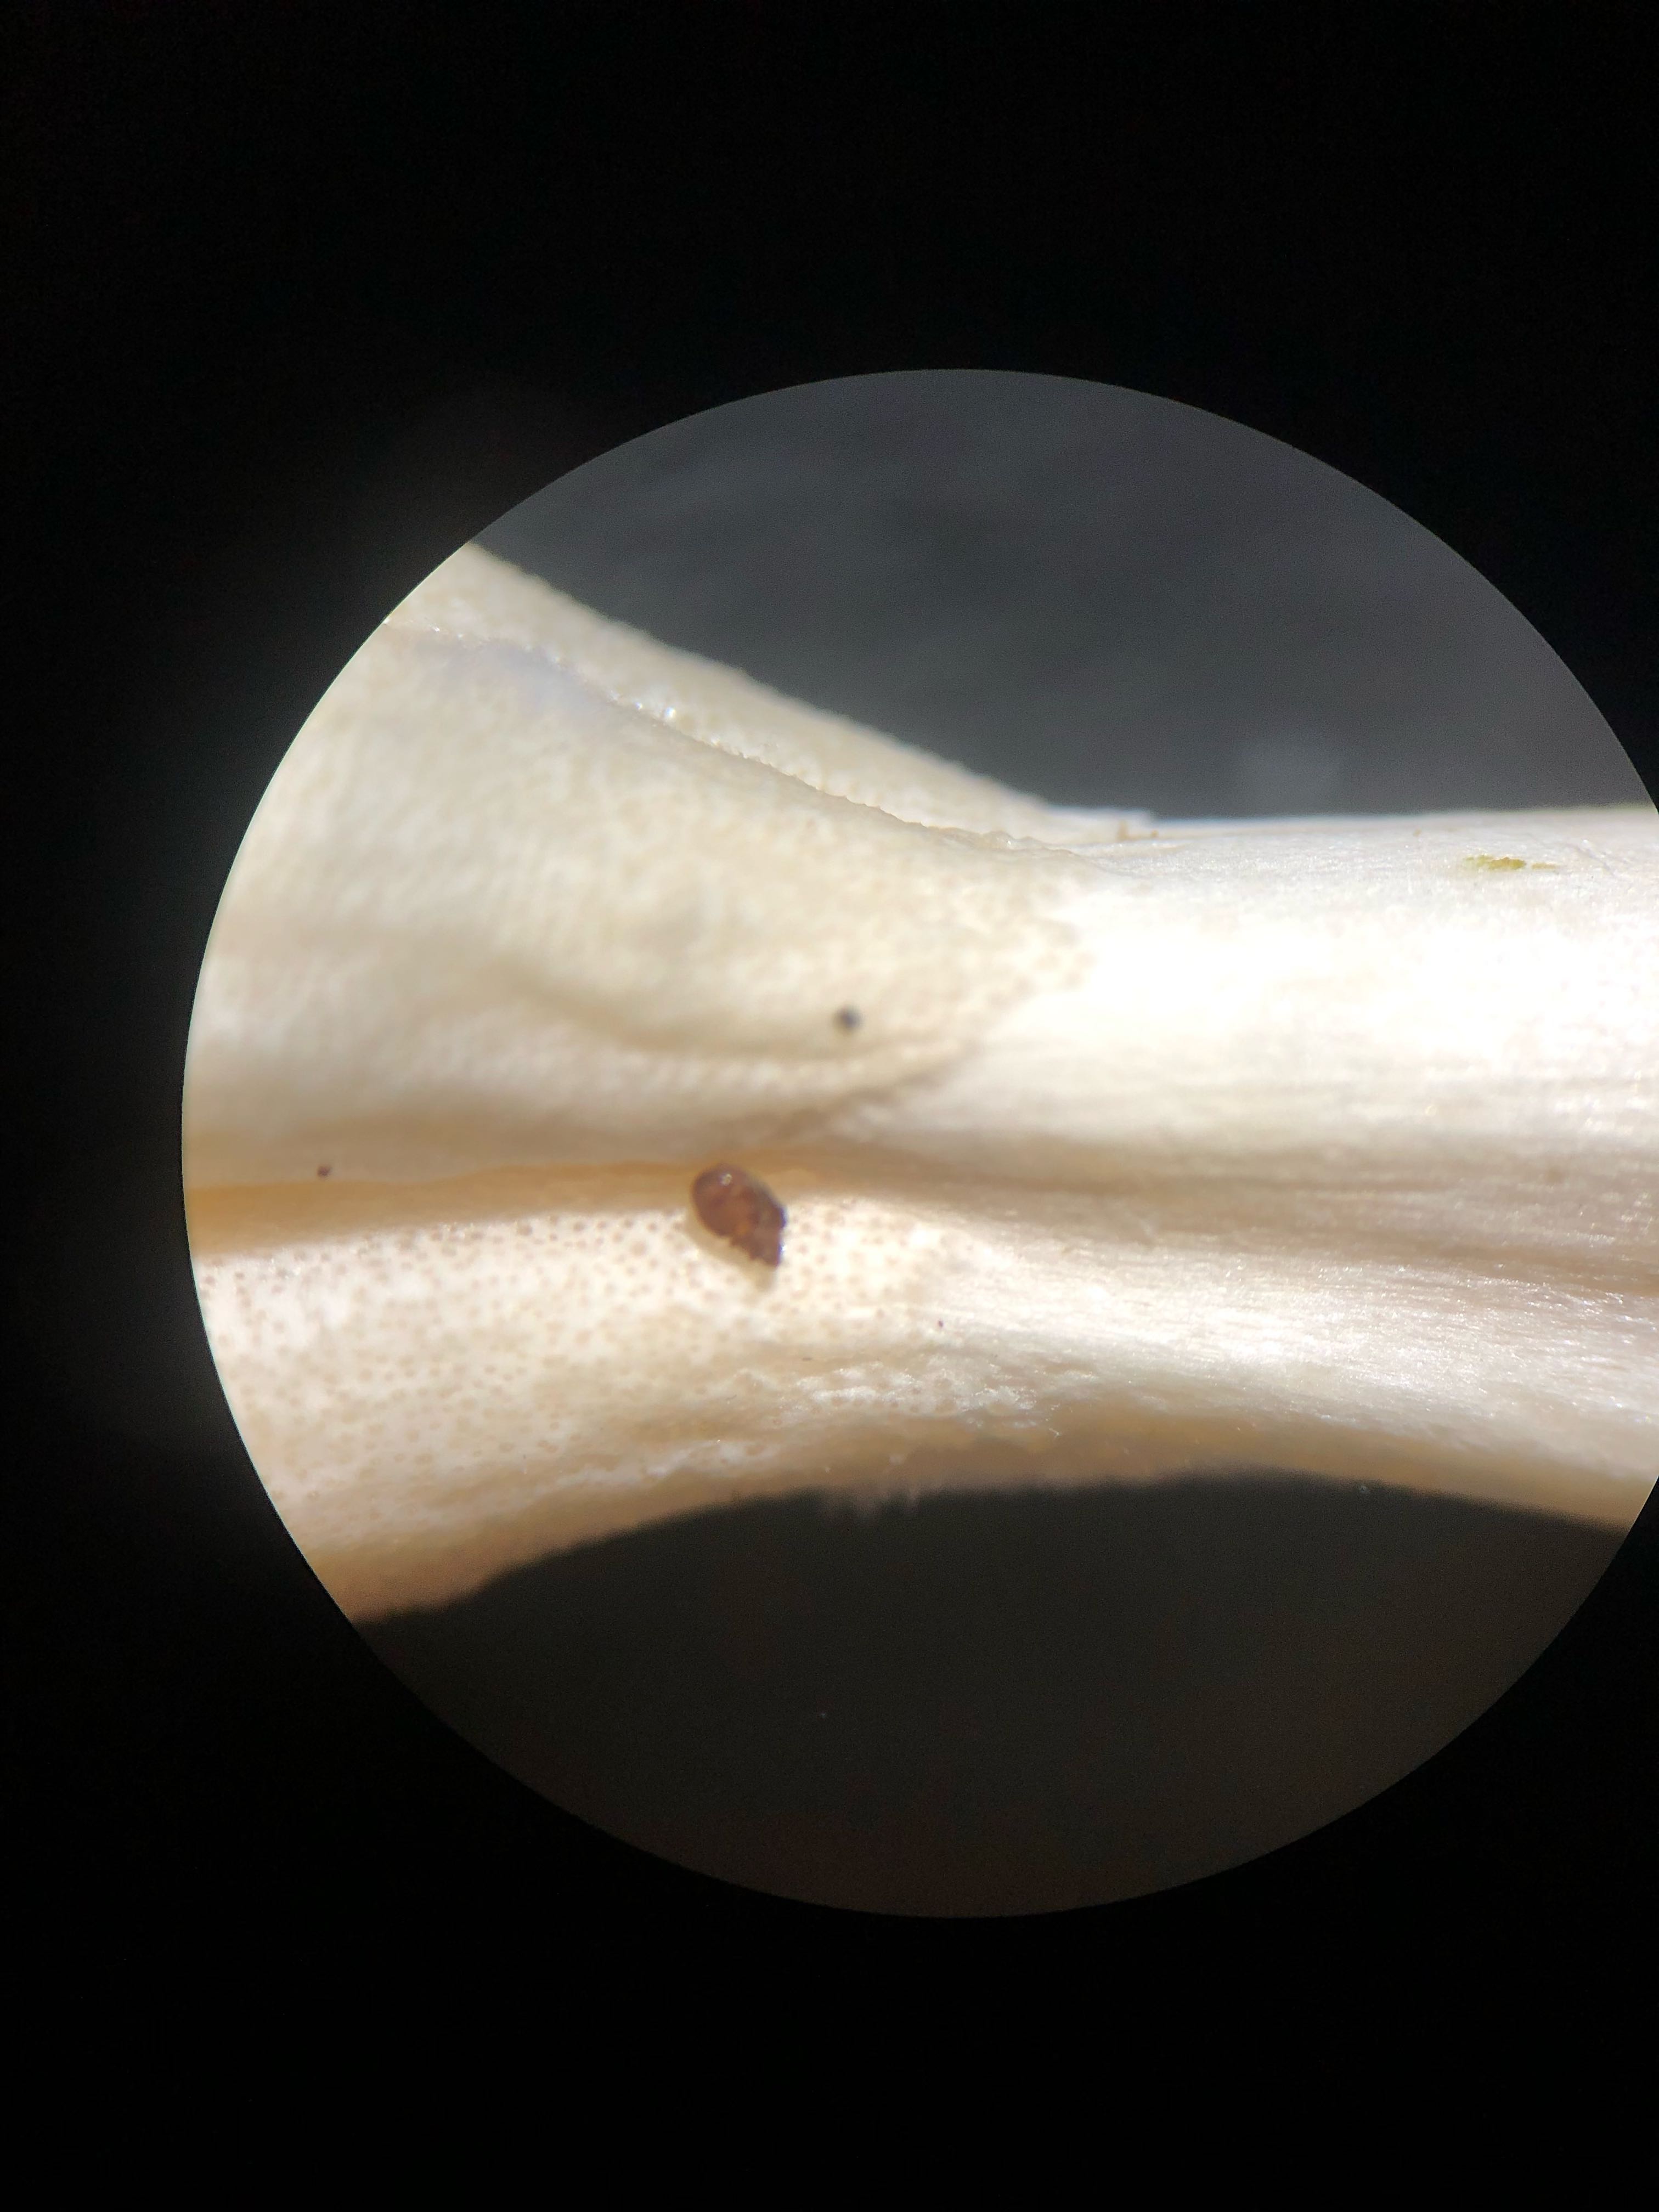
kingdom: Fungi
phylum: Ascomycota
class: Sordariomycetes
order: Hypocreales
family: Hypocreaceae
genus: Trichoderma
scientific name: Trichoderma leucopus
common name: lysstokket kødkerne
